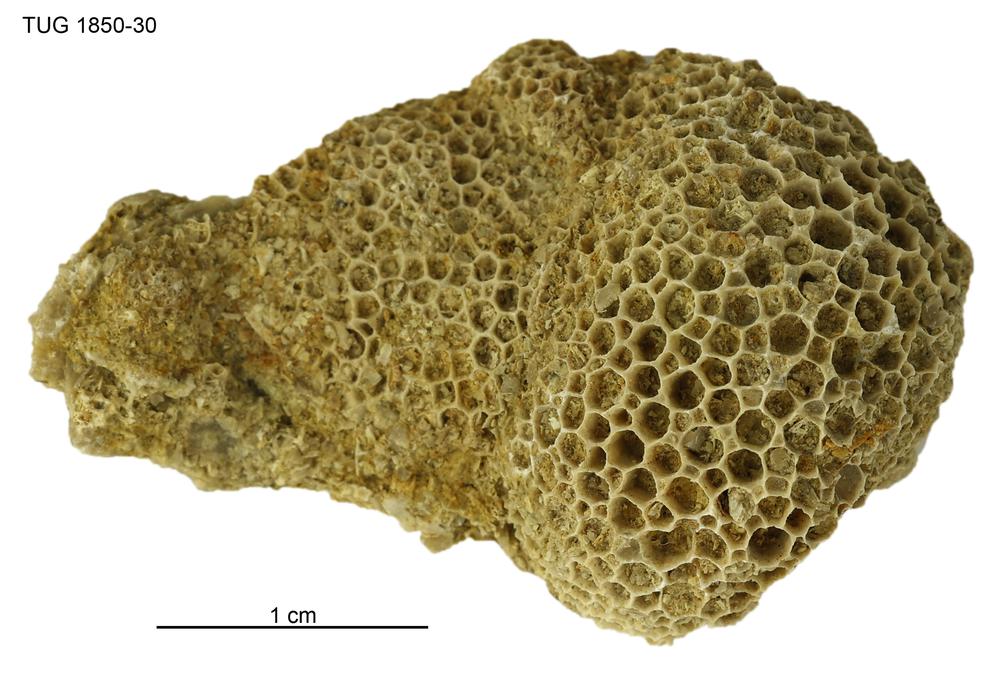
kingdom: Animalia
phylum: Cnidaria
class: Anthozoa
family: Favositidae
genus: Favosites
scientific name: Favosites
